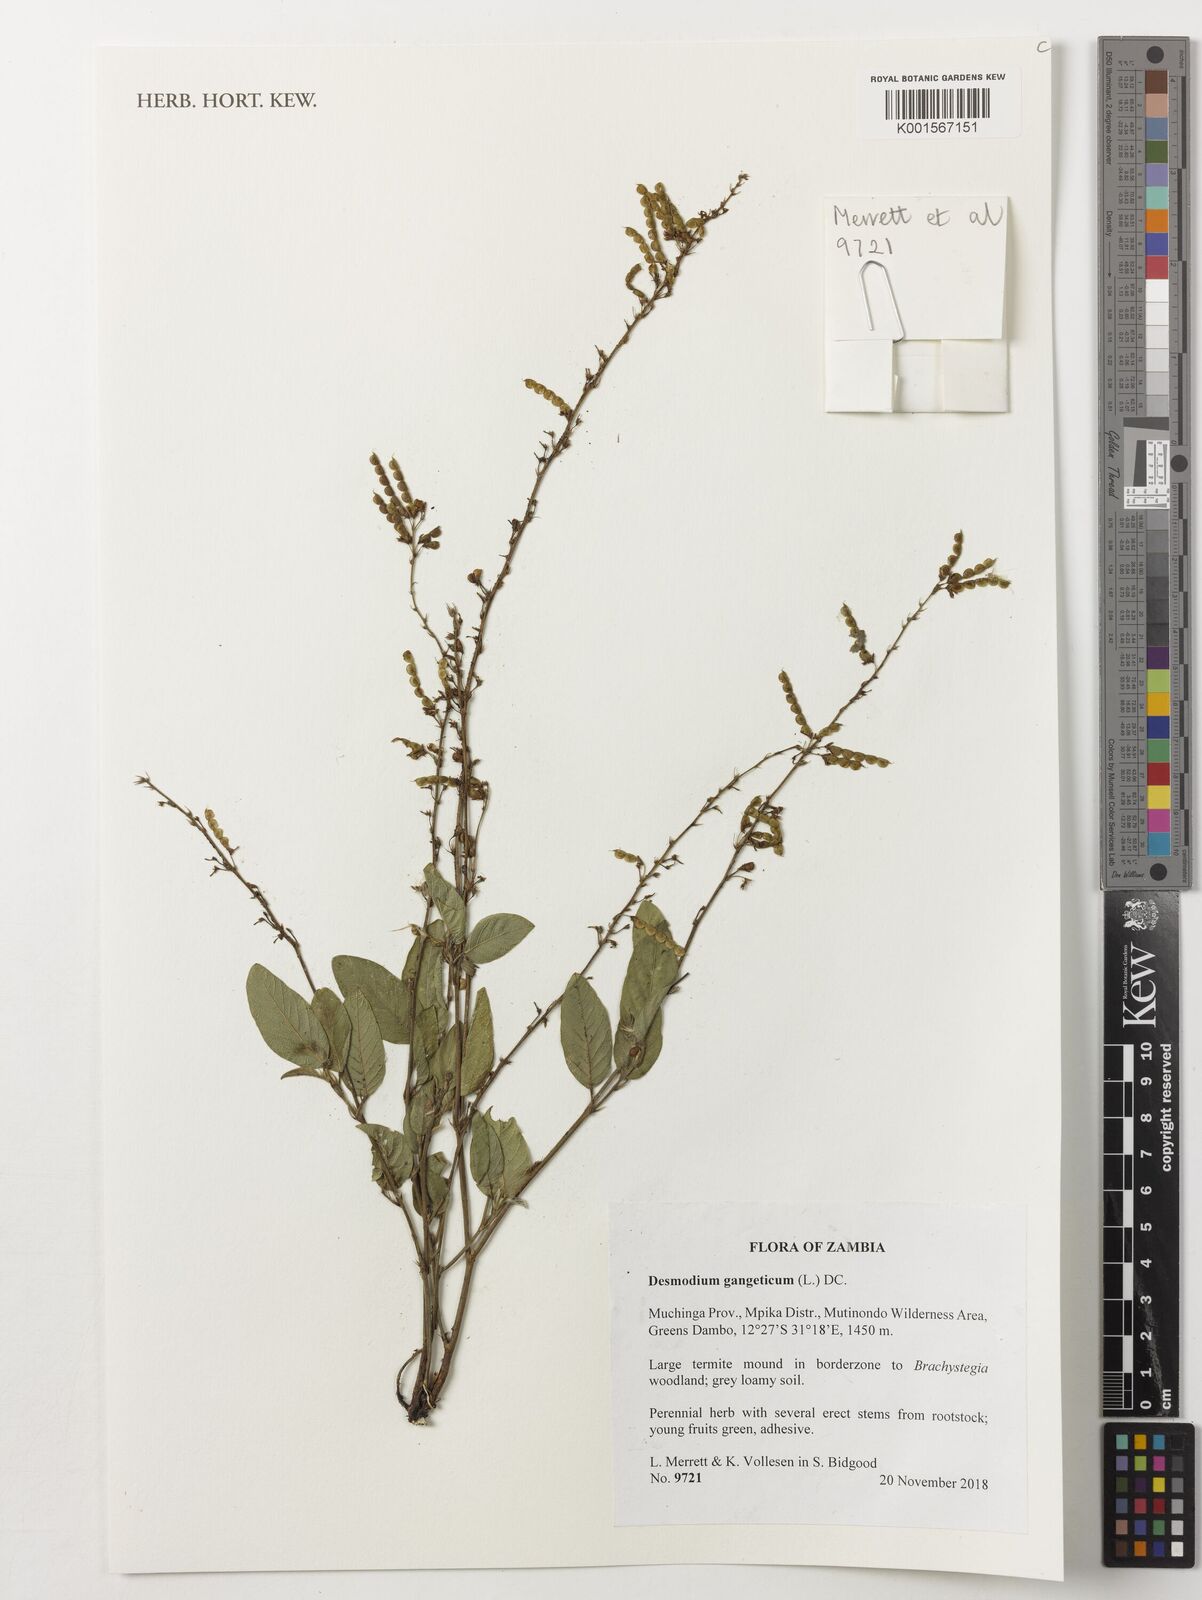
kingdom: Plantae
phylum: Tracheophyta
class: Magnoliopsida
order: Fabales
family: Fabaceae
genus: Pleurolobus
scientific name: Pleurolobus gangeticus
